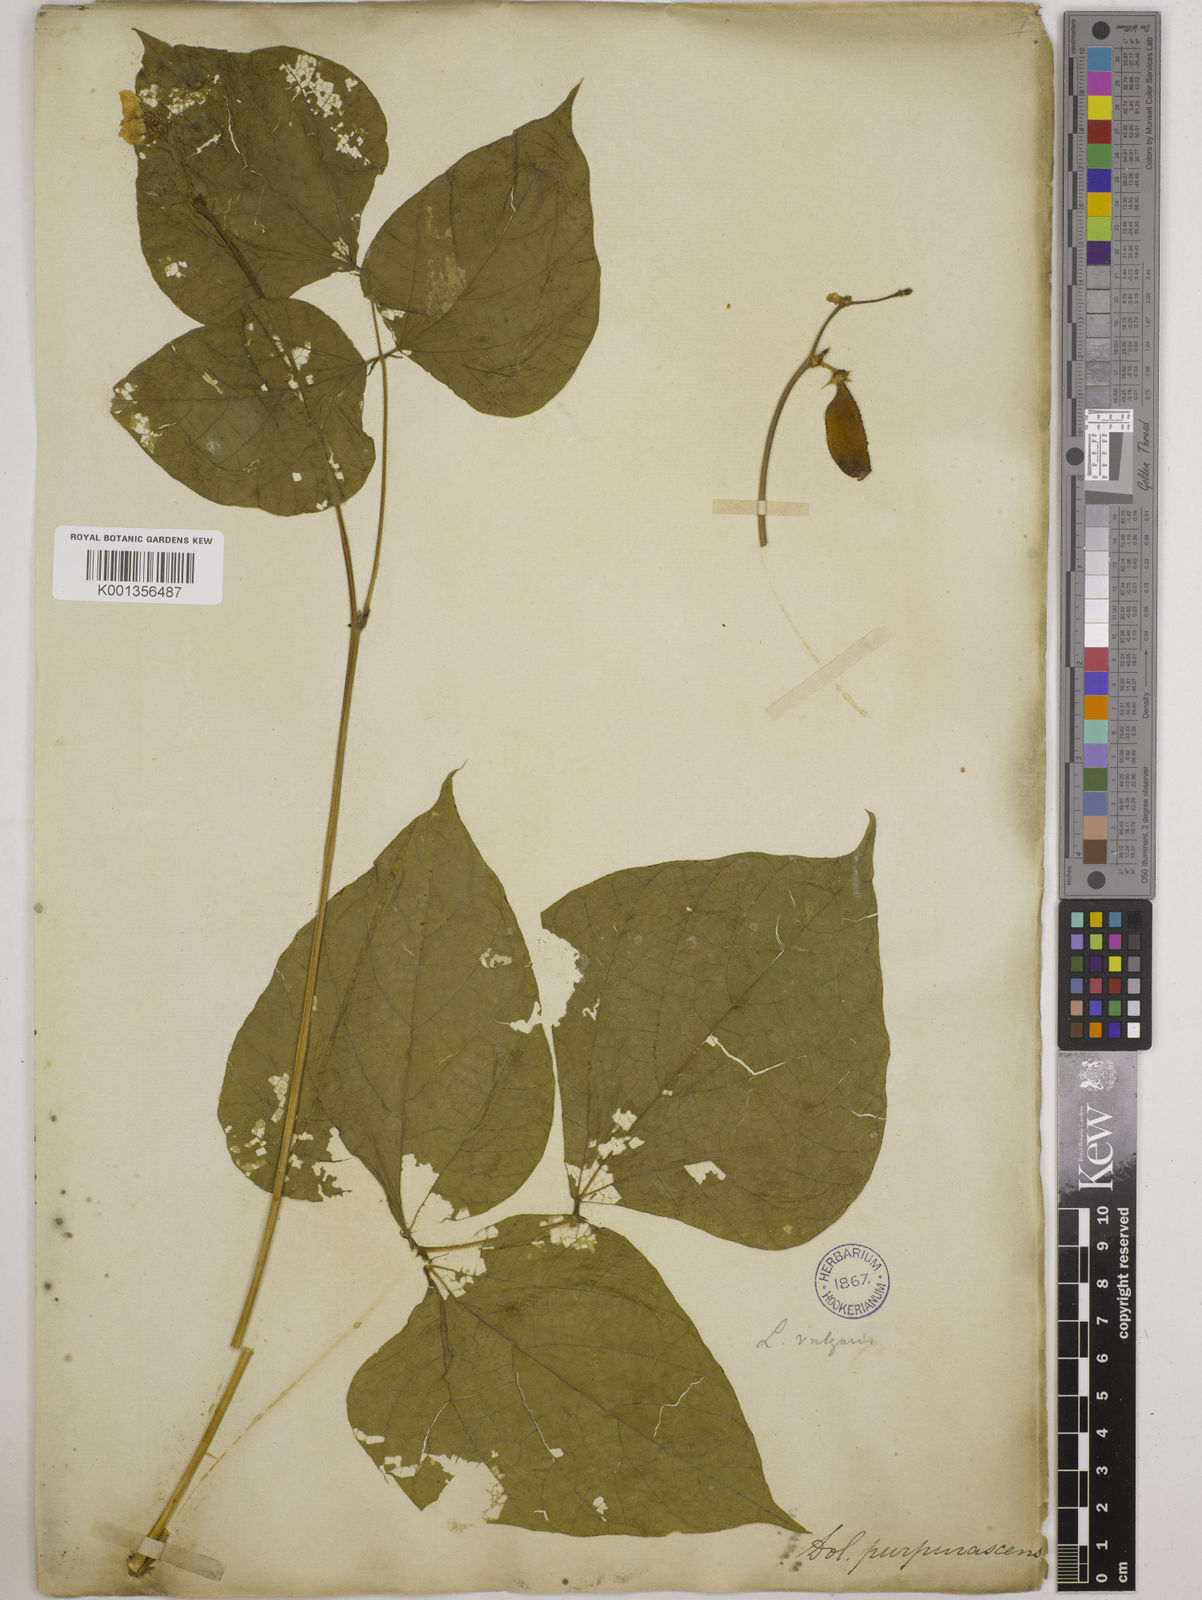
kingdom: Plantae
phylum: Tracheophyta
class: Magnoliopsida
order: Fabales
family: Fabaceae
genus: Lablab
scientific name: Lablab purpureus
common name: Lablab-bean
